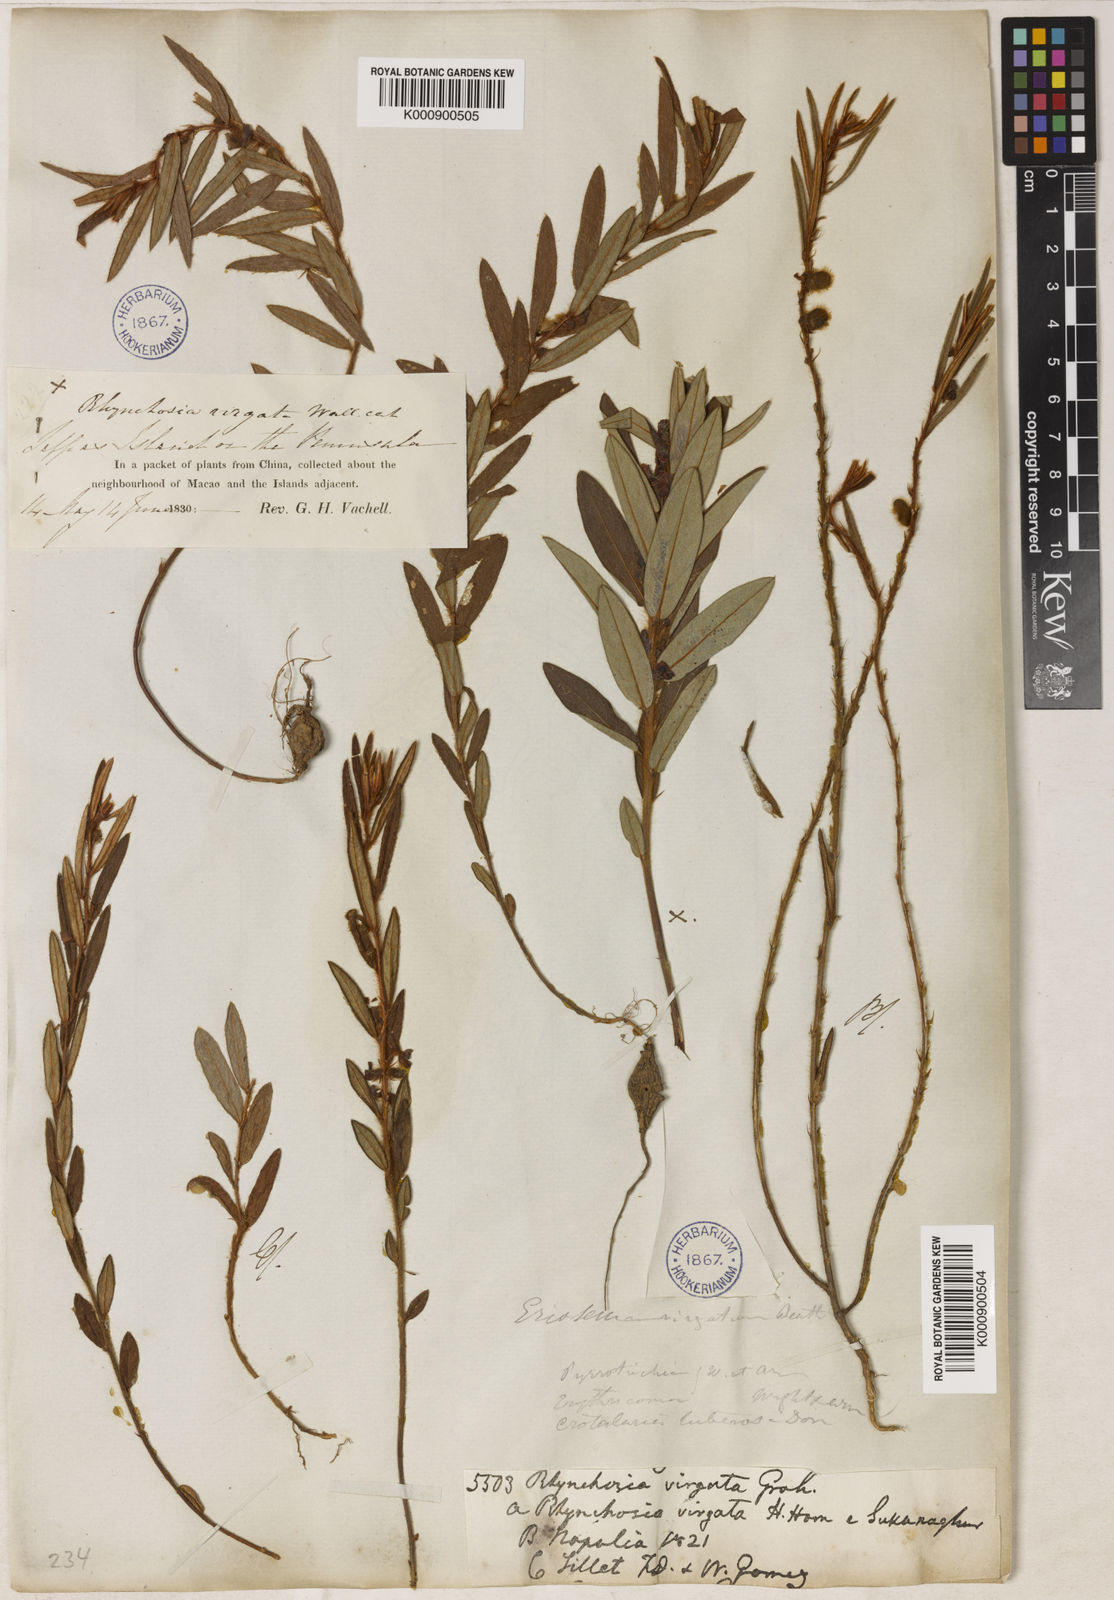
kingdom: Plantae
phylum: Tracheophyta
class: Magnoliopsida
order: Fabales
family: Fabaceae
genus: Eriosema
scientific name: Eriosema chinense
